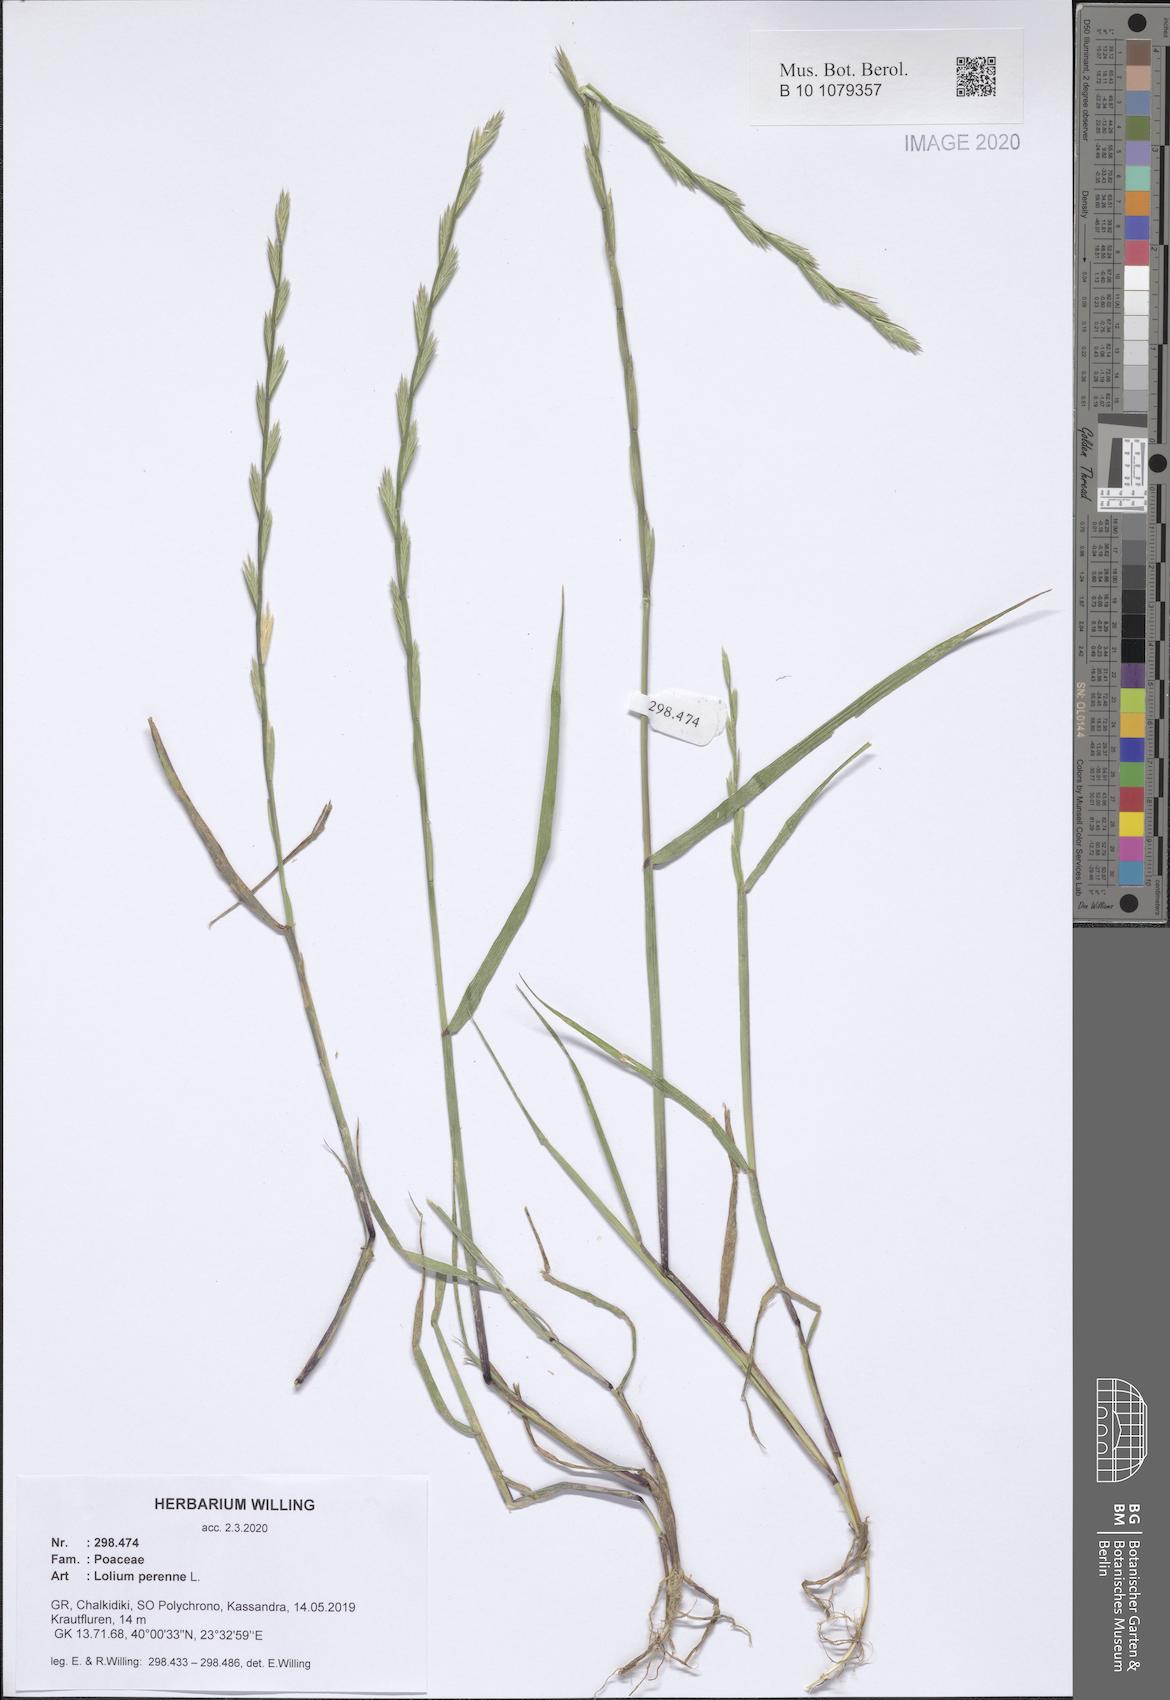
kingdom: Plantae
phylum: Tracheophyta
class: Liliopsida
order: Poales
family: Poaceae
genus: Lolium
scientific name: Lolium perenne
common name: Perennial ryegrass
